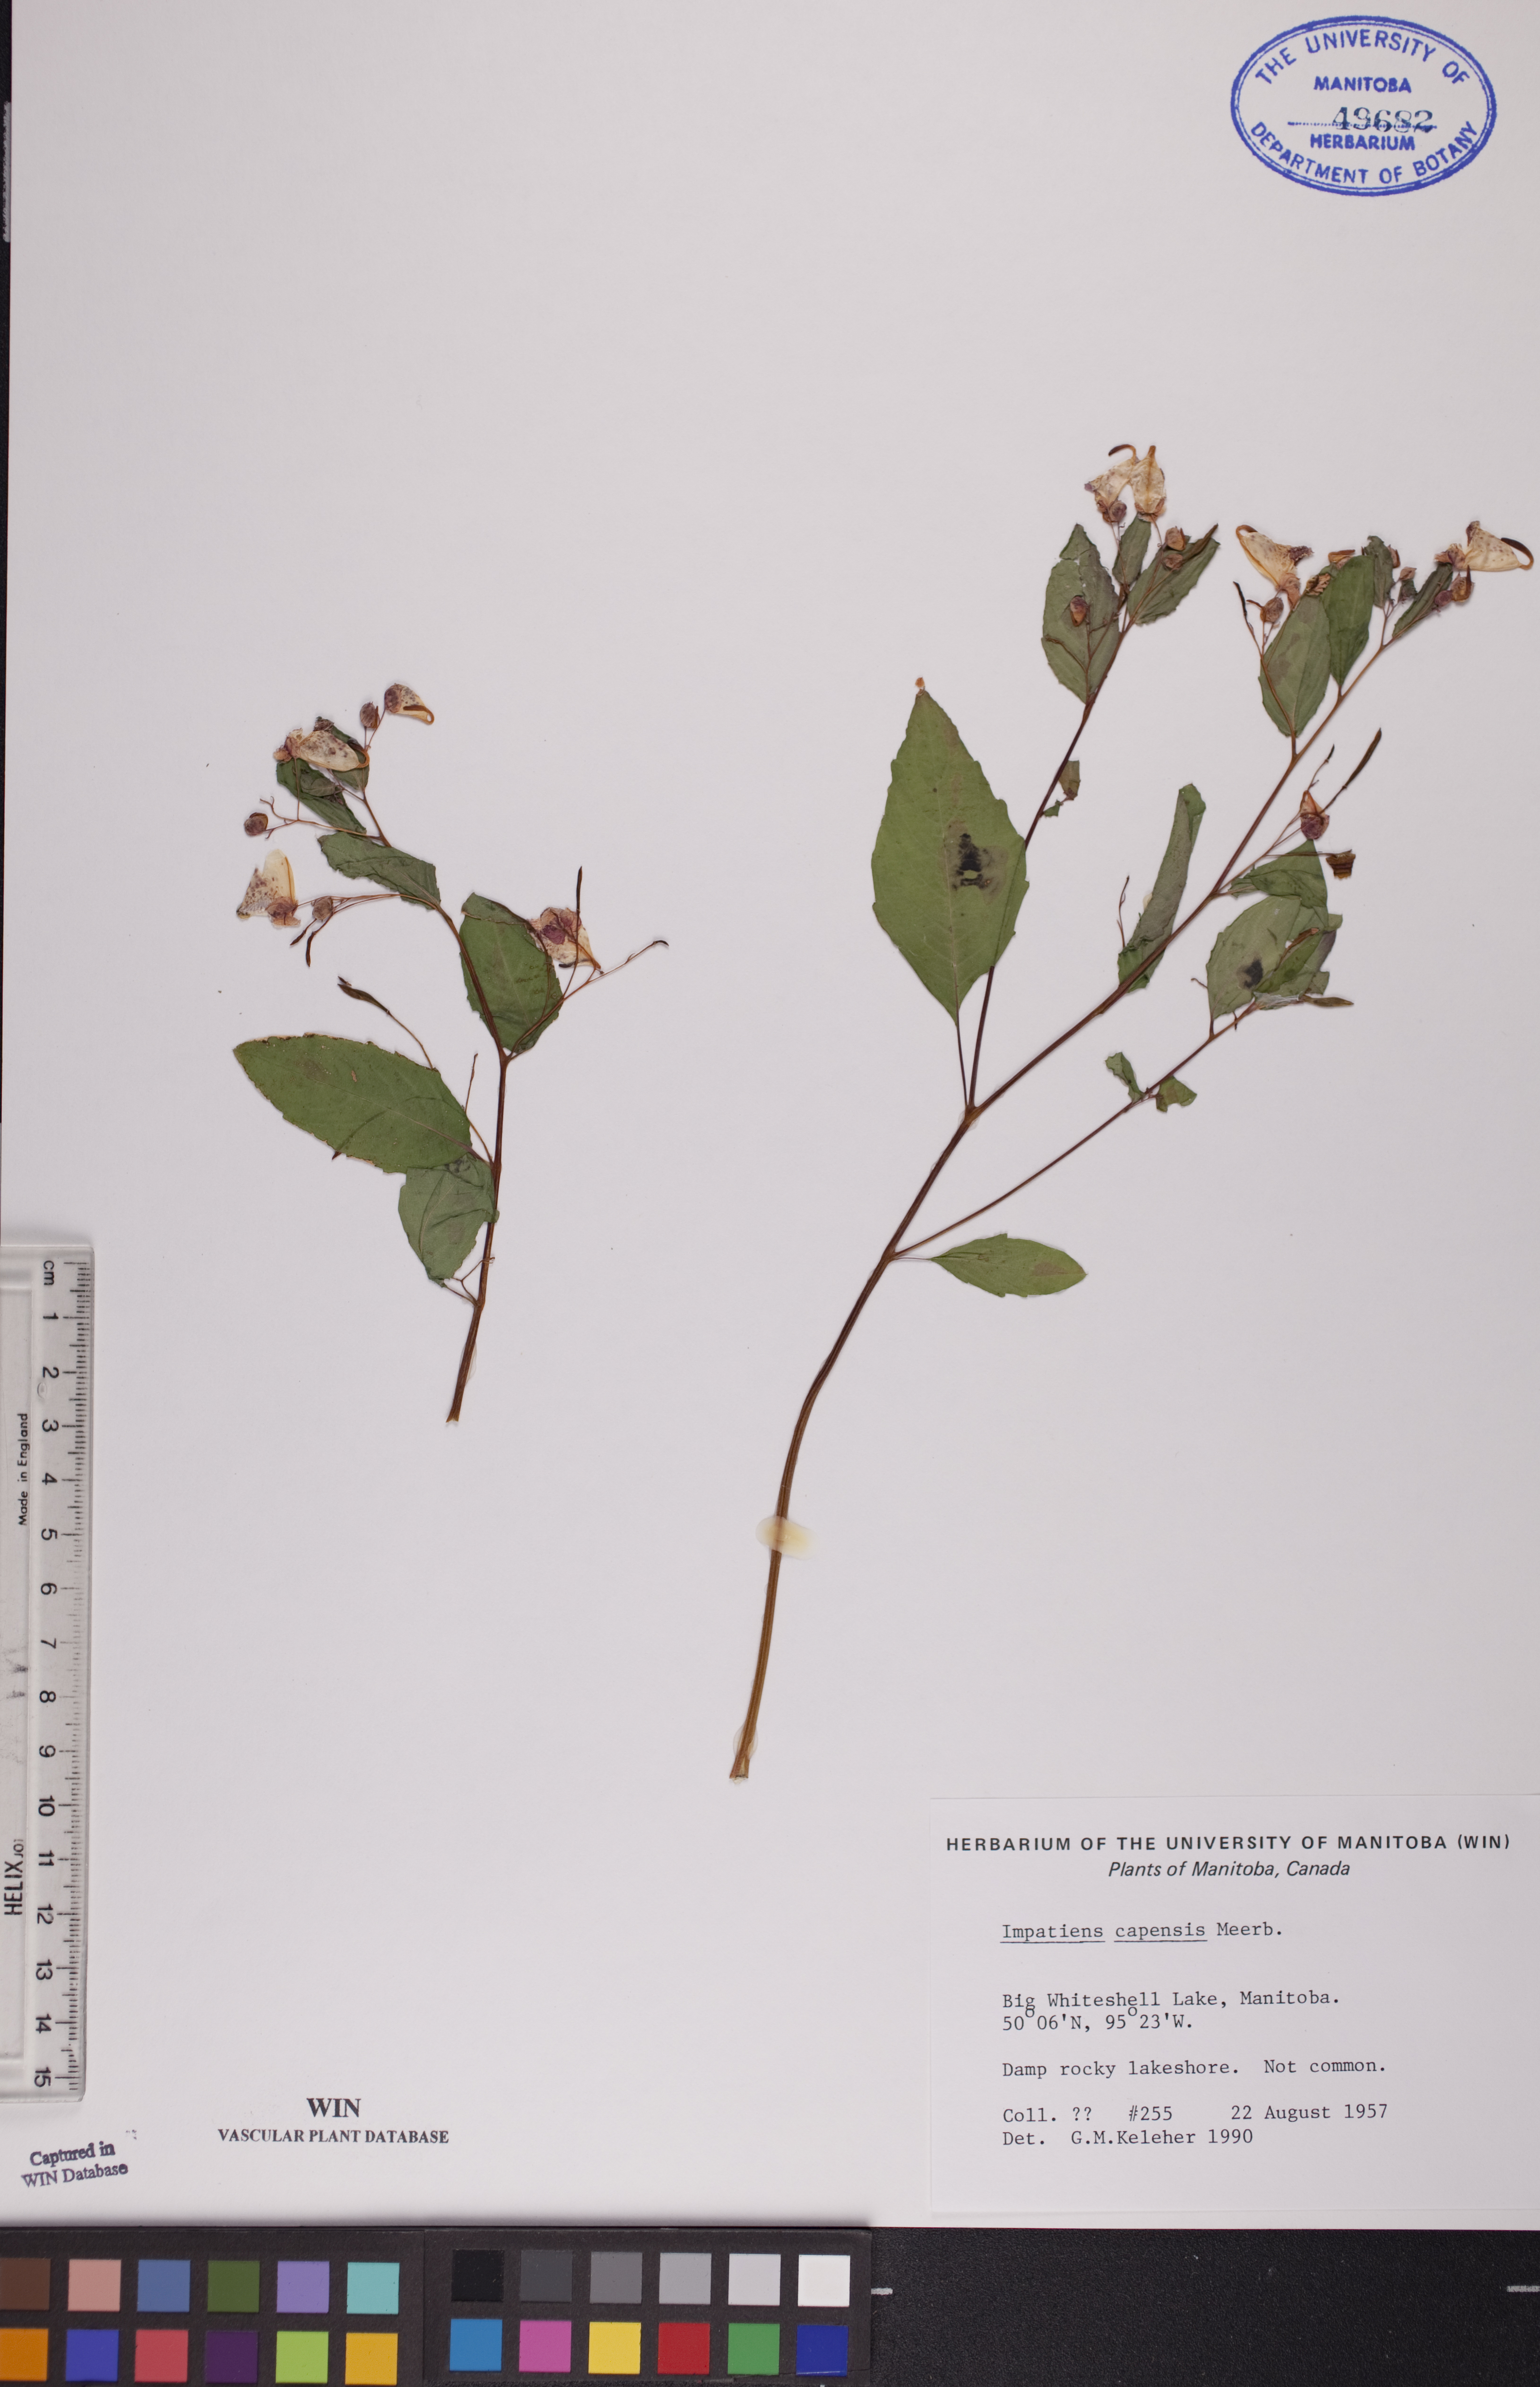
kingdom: Plantae
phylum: Tracheophyta
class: Magnoliopsida
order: Ericales
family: Balsaminaceae
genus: Impatiens
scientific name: Impatiens capensis
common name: Orange balsam
